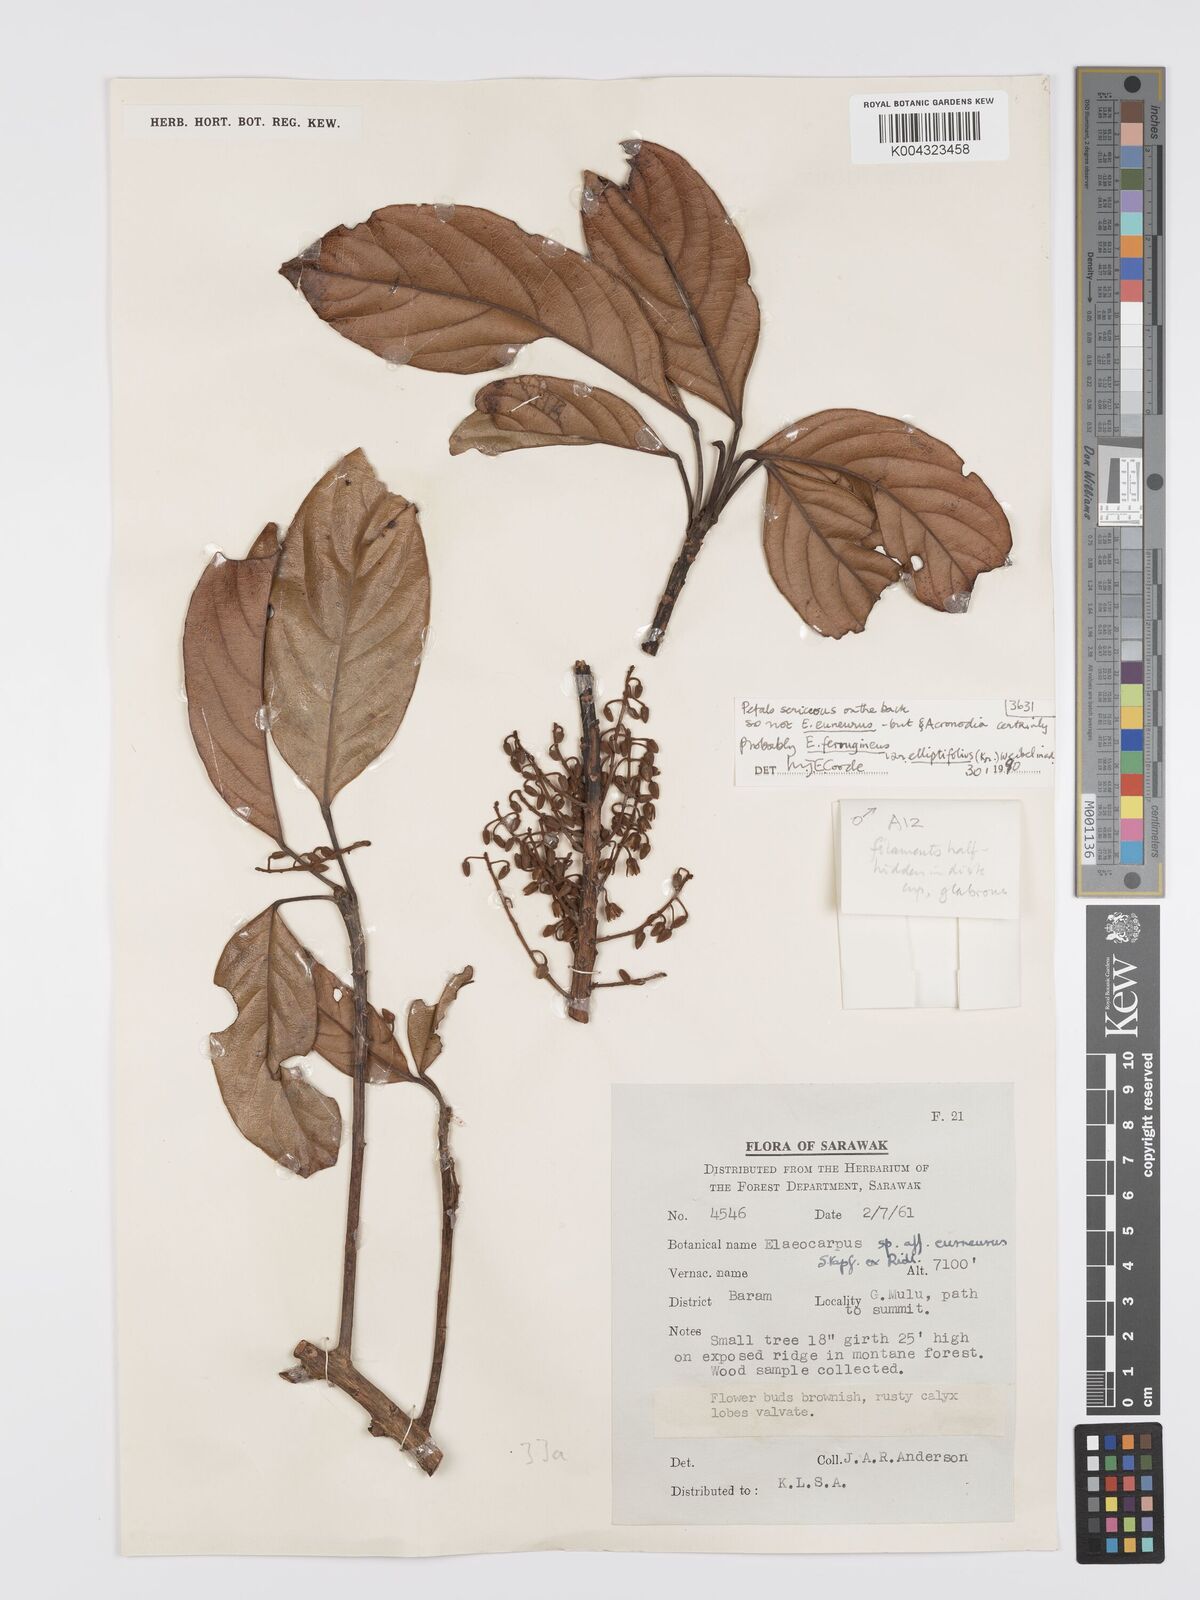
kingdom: Plantae
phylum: Tracheophyta
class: Magnoliopsida
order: Oxalidales
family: Elaeocarpaceae
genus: Elaeocarpus
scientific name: Elaeocarpus ferrugineus
